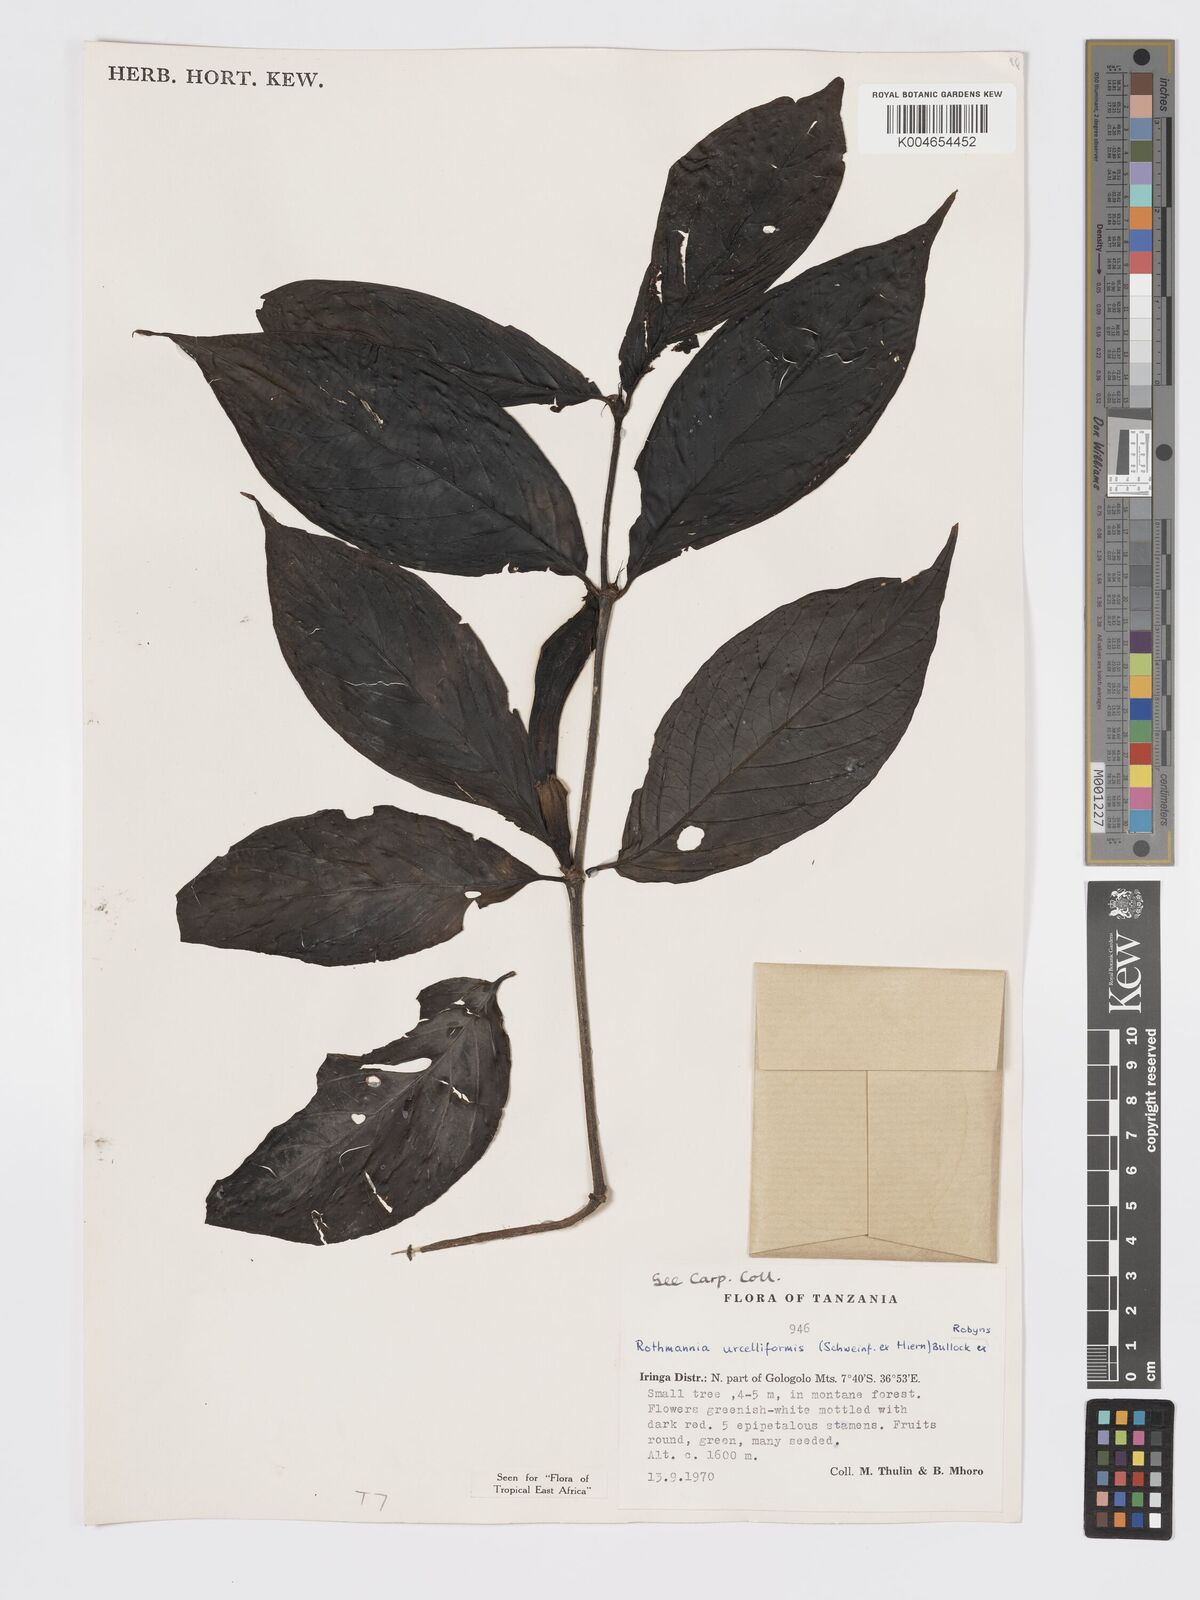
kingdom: Plantae
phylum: Tracheophyta
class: Magnoliopsida
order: Gentianales
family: Rubiaceae
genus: Rothmannia
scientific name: Rothmannia urcelliformis
